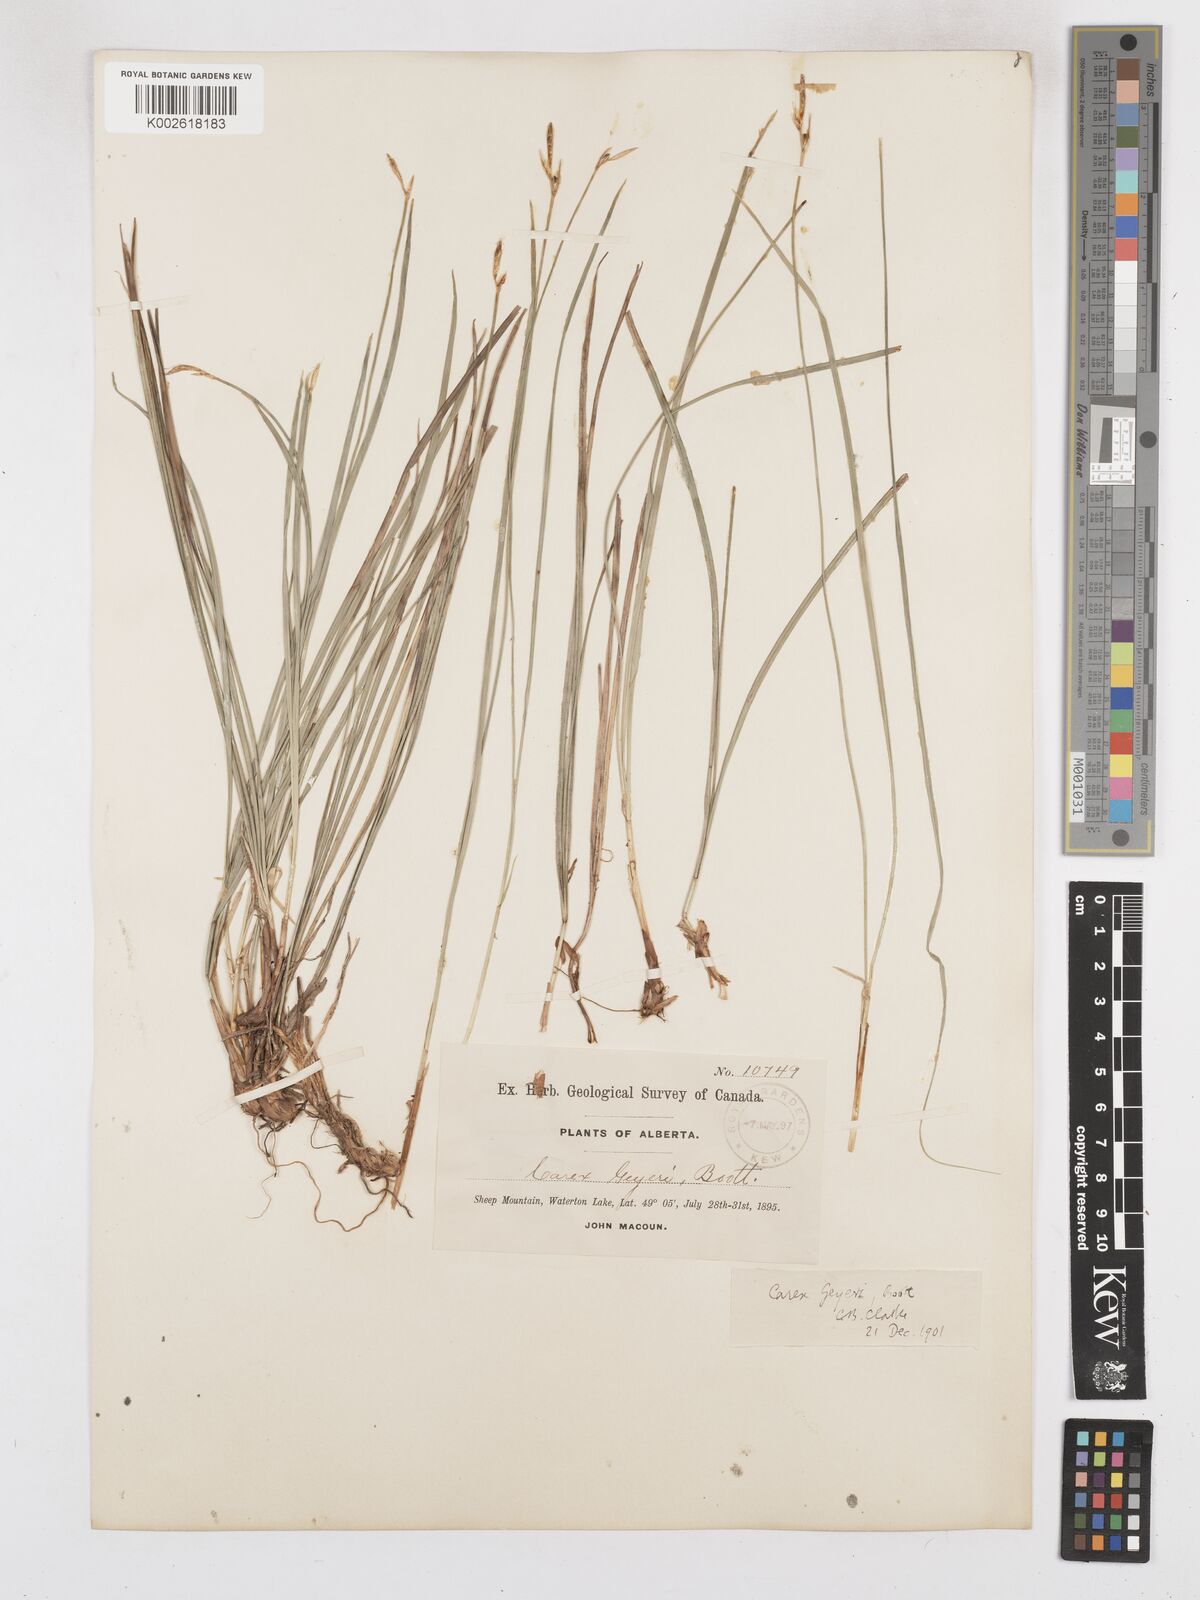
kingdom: Plantae
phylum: Tracheophyta
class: Liliopsida
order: Poales
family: Cyperaceae
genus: Carex
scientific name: Carex geyeri
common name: Elk sedge
